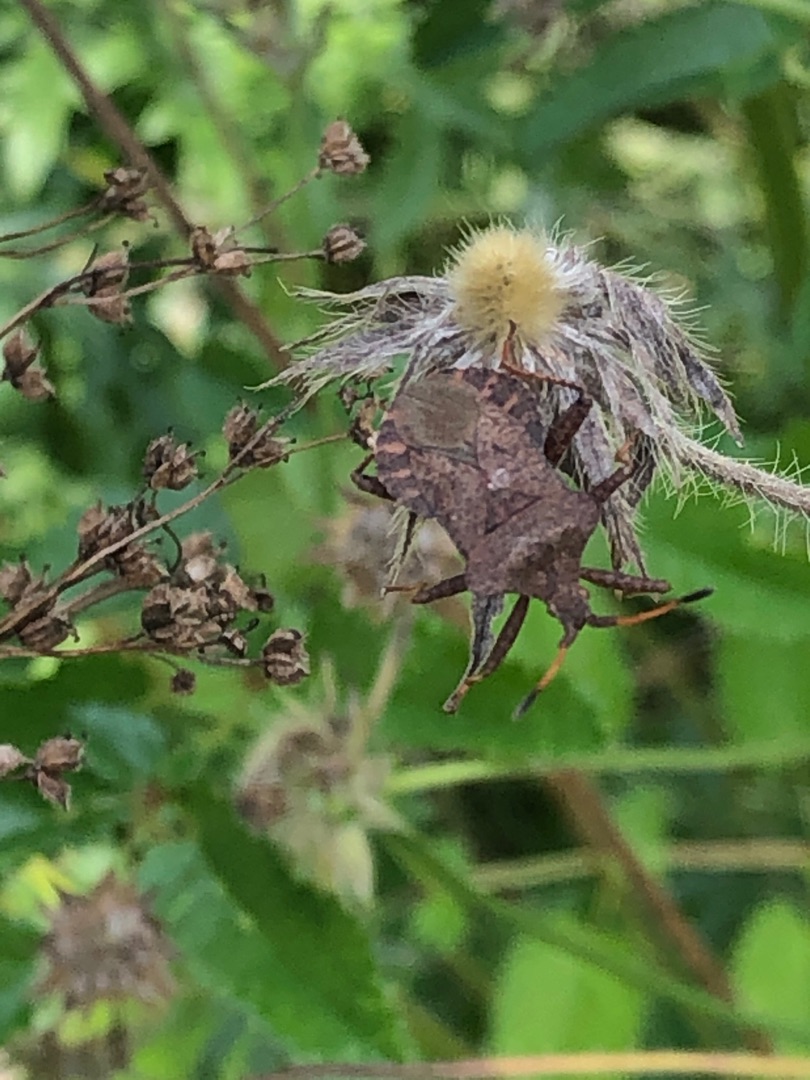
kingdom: Animalia
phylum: Arthropoda
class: Insecta
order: Hemiptera
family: Coreidae
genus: Coreus
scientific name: Coreus marginatus
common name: Skræppetæge
